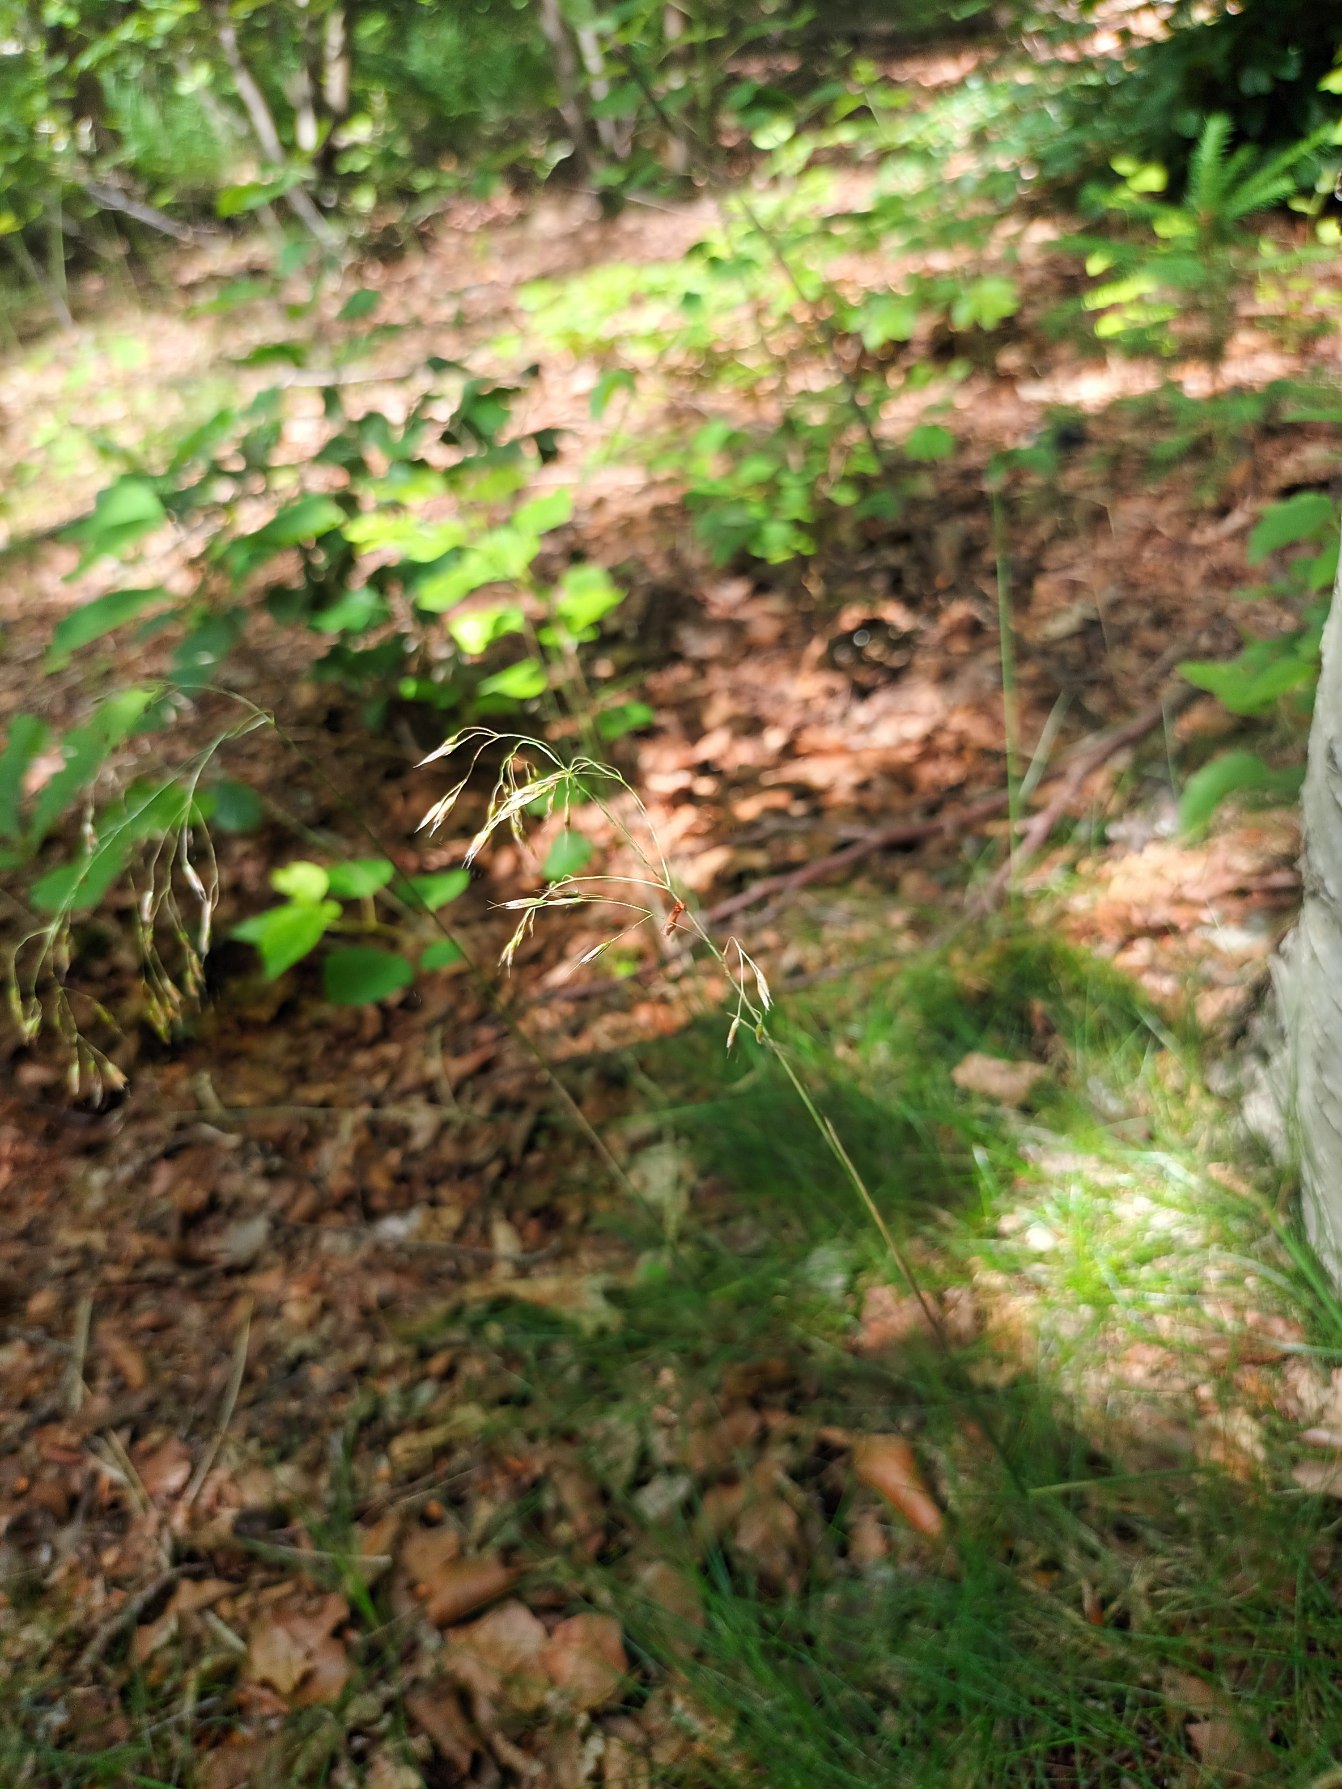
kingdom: Plantae
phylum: Tracheophyta
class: Liliopsida
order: Poales
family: Poaceae
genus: Avenella
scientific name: Avenella flexuosa
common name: Bølget bunke
